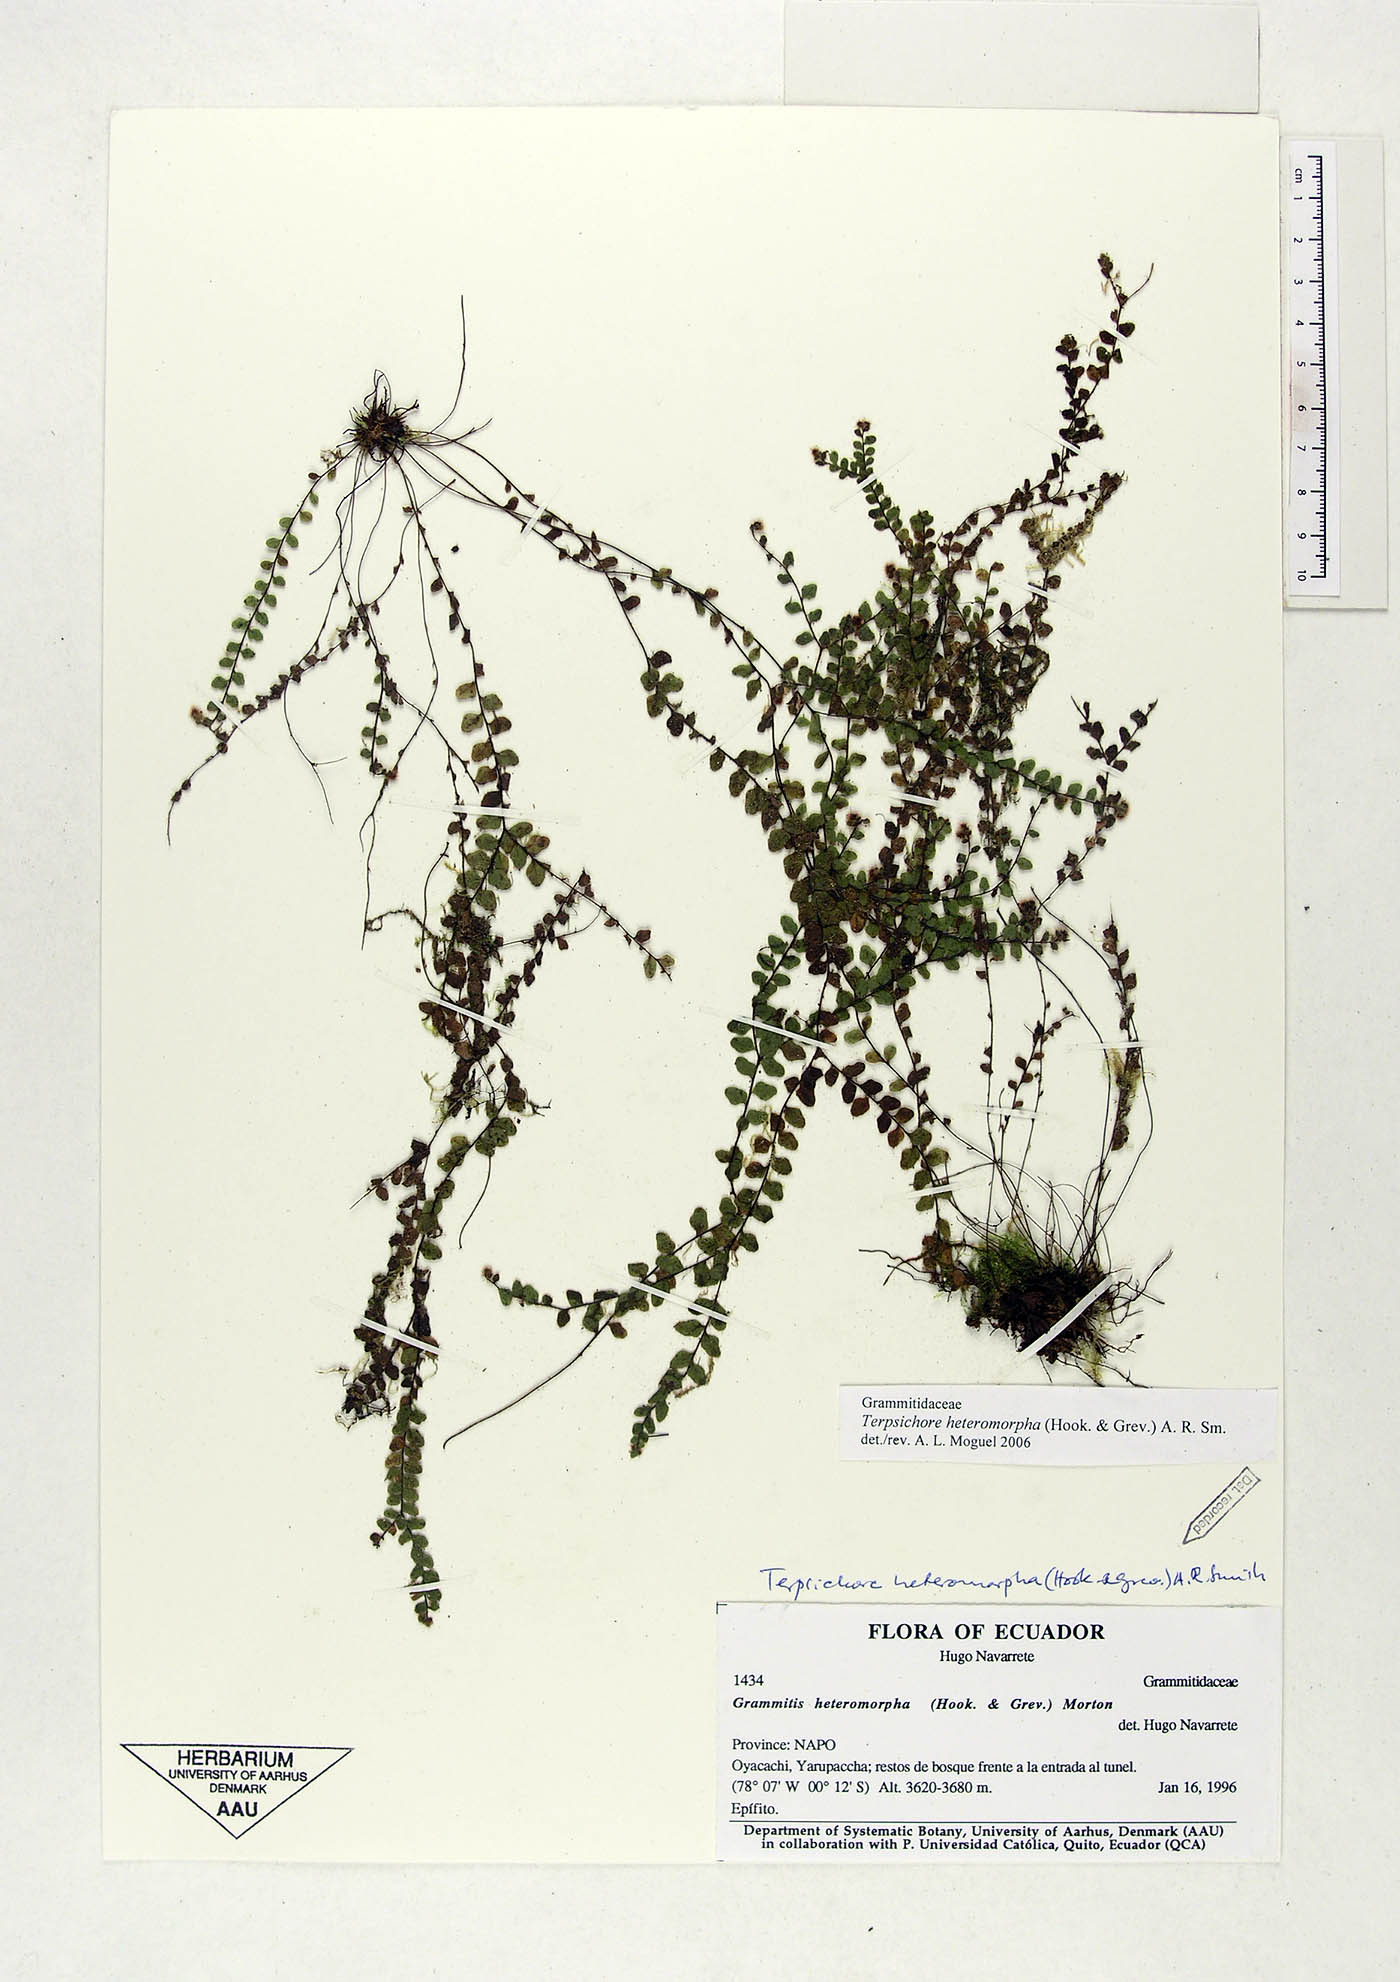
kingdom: Plantae
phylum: Tracheophyta
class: Polypodiopsida
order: Polypodiales
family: Polypodiaceae
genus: Alansmia
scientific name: Alansmia heteromorpha
